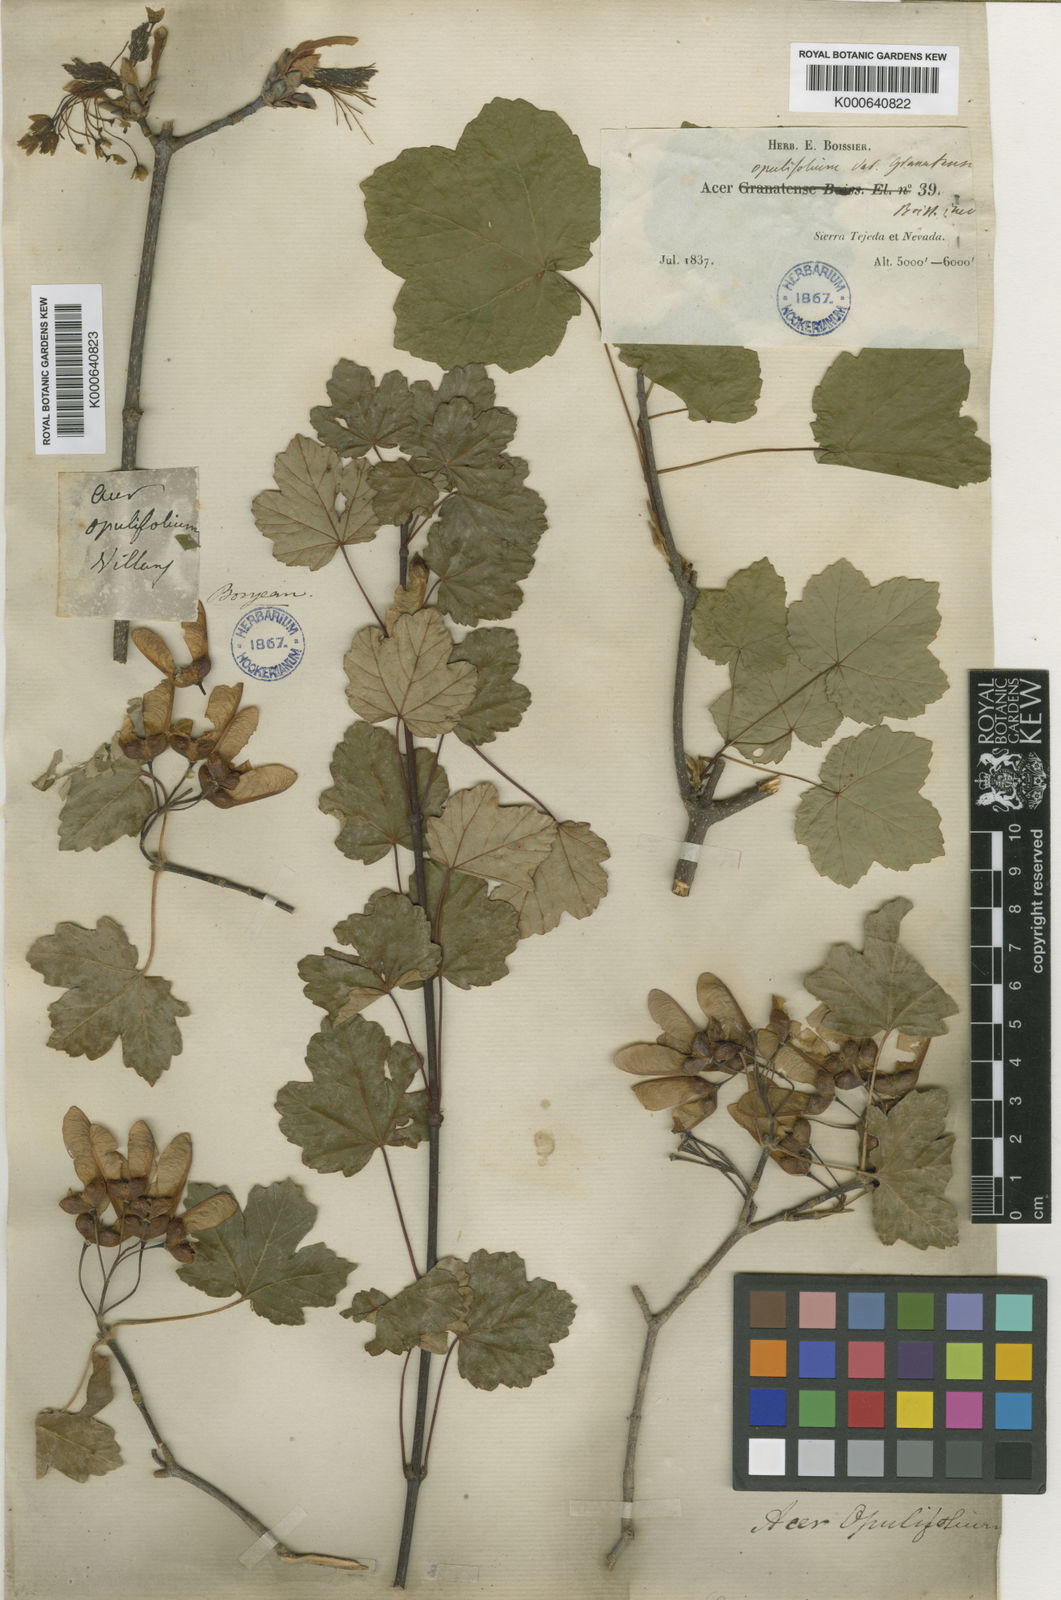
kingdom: Plantae
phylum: Tracheophyta
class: Magnoliopsida
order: Sapindales
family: Sapindaceae
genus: Acer
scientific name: Acer
